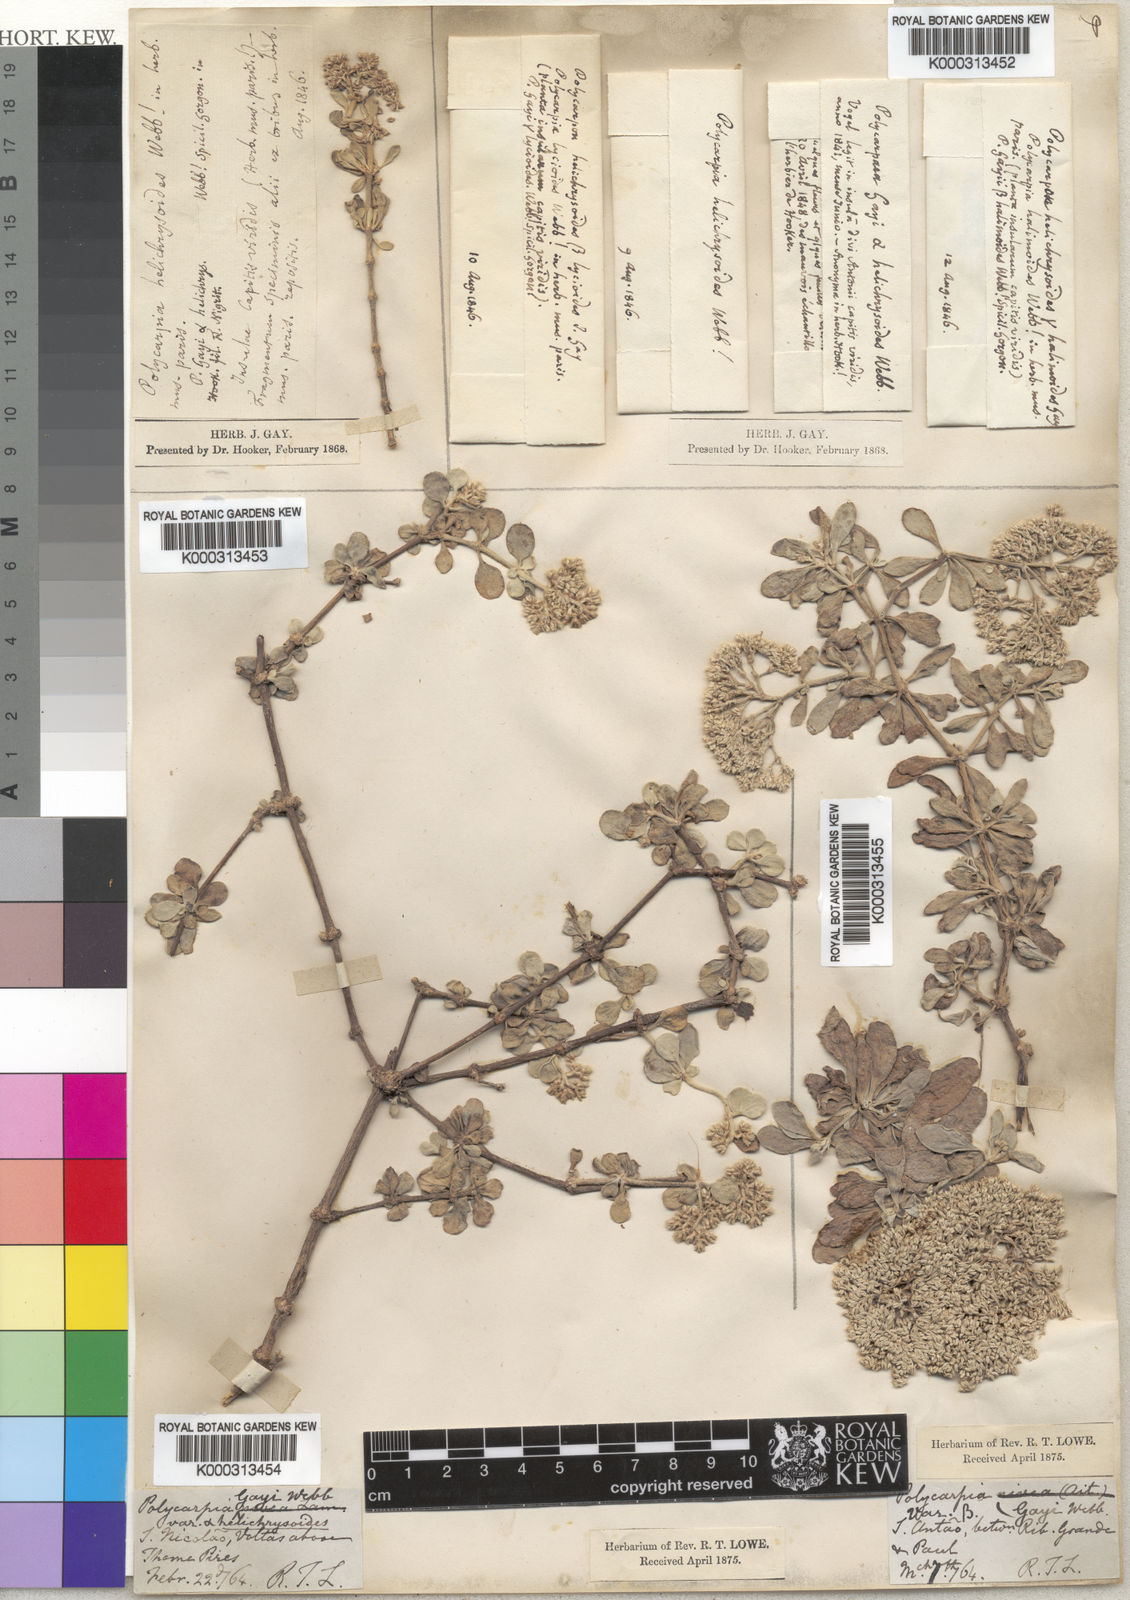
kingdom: Plantae
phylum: Tracheophyta
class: Magnoliopsida
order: Caryophyllales
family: Caryophyllaceae
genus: Polycarpaea
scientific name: Polycarpaea gayi
